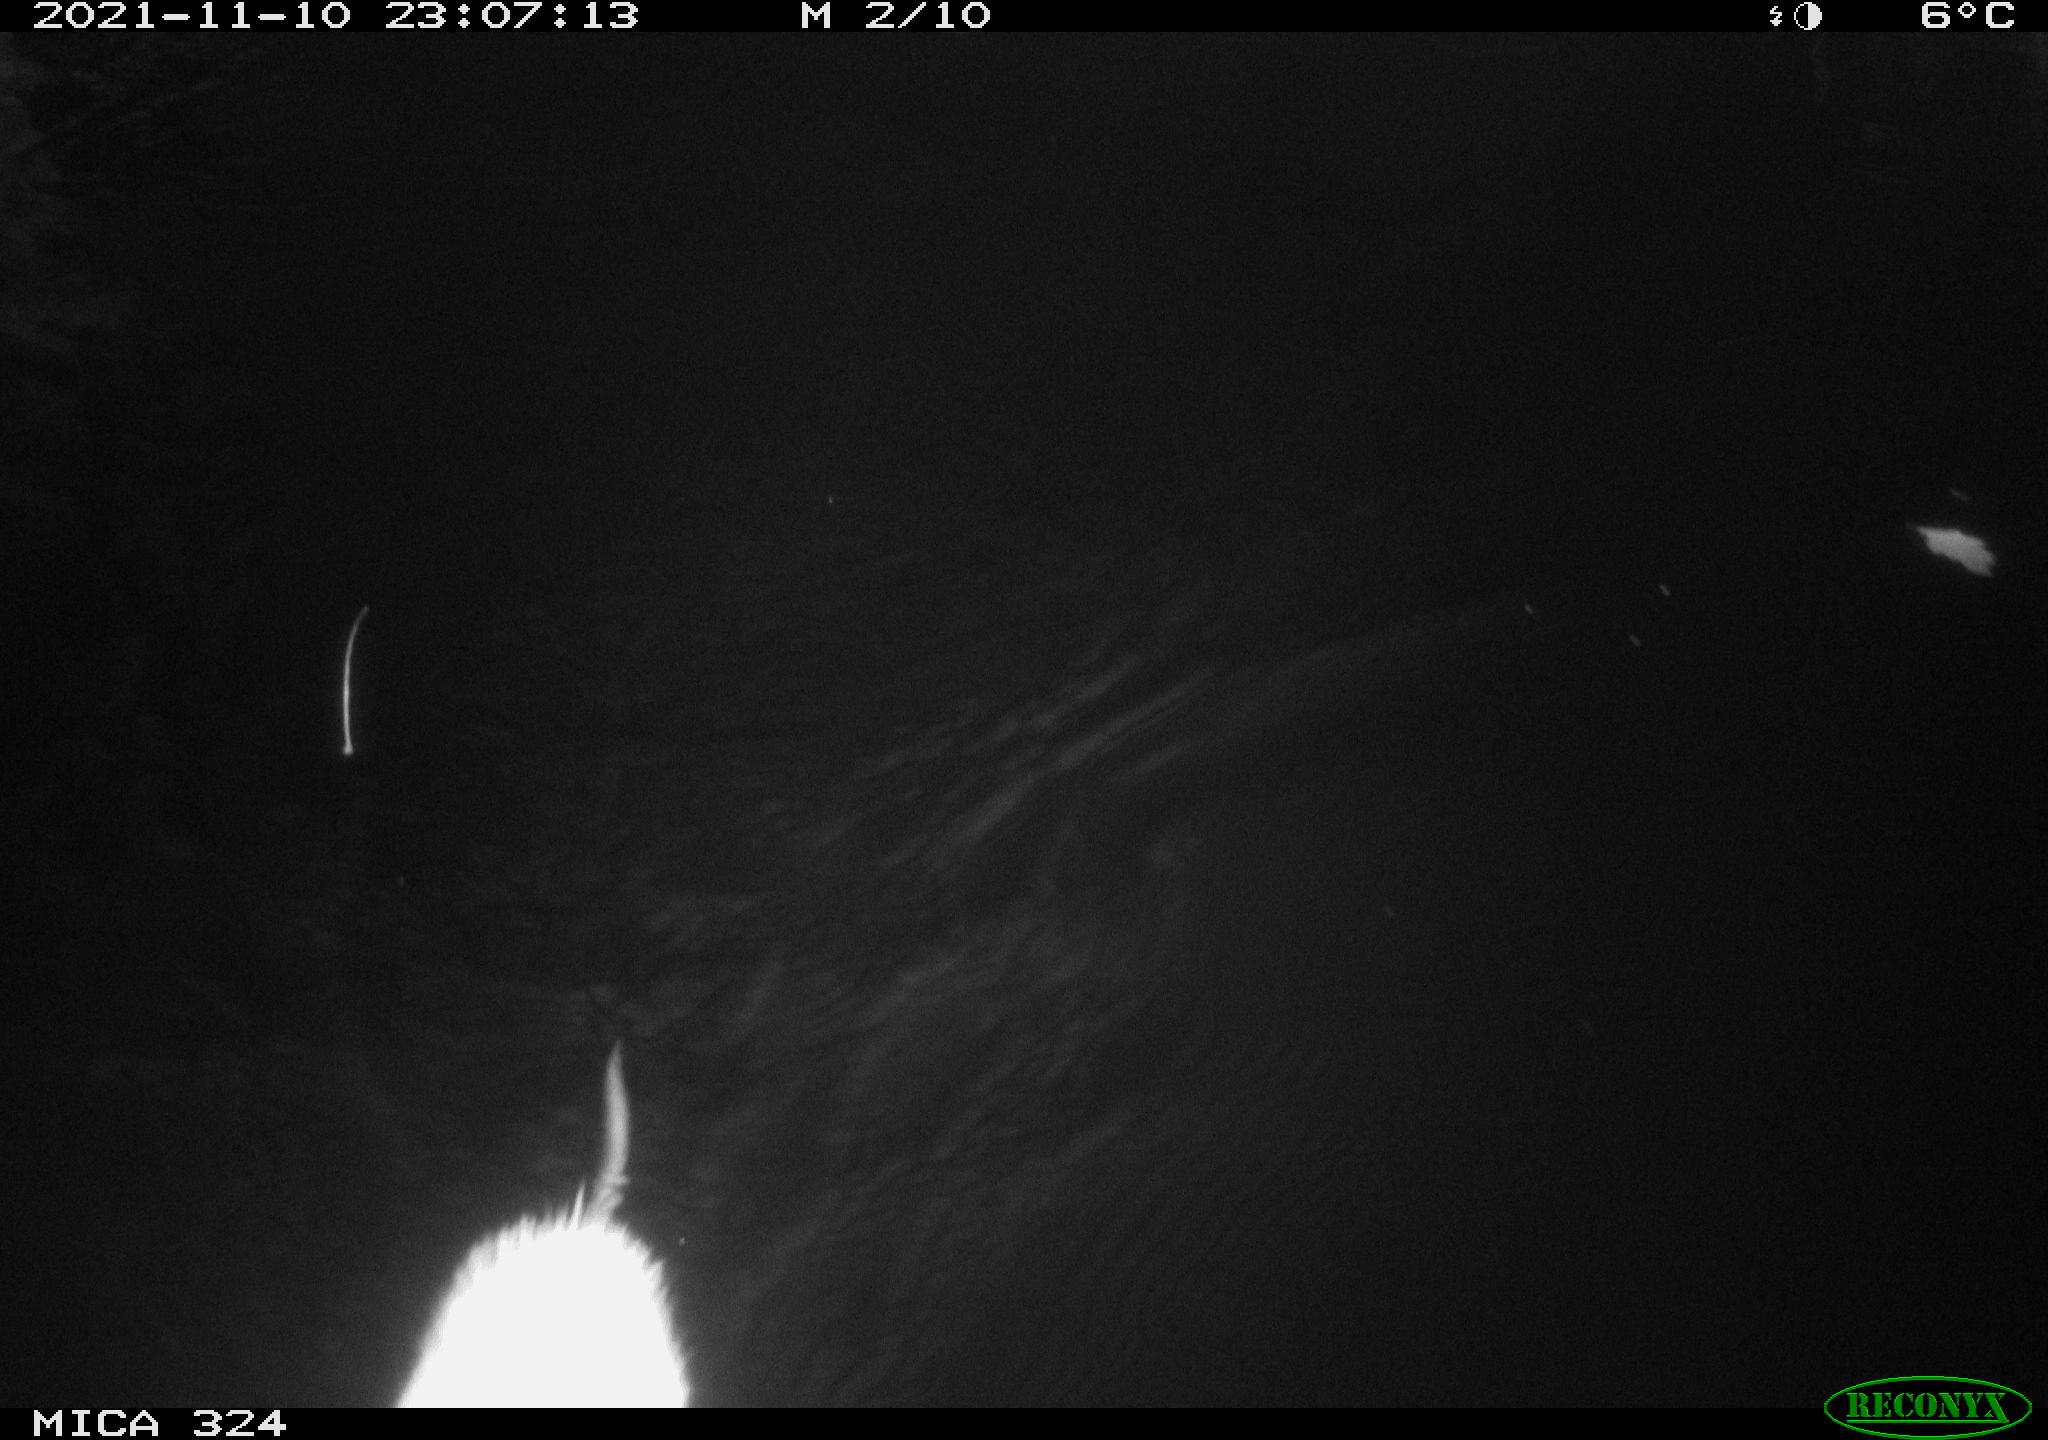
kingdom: Animalia
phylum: Chordata
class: Mammalia
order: Rodentia
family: Cricetidae
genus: Ondatra
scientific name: Ondatra zibethicus
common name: Muskrat
